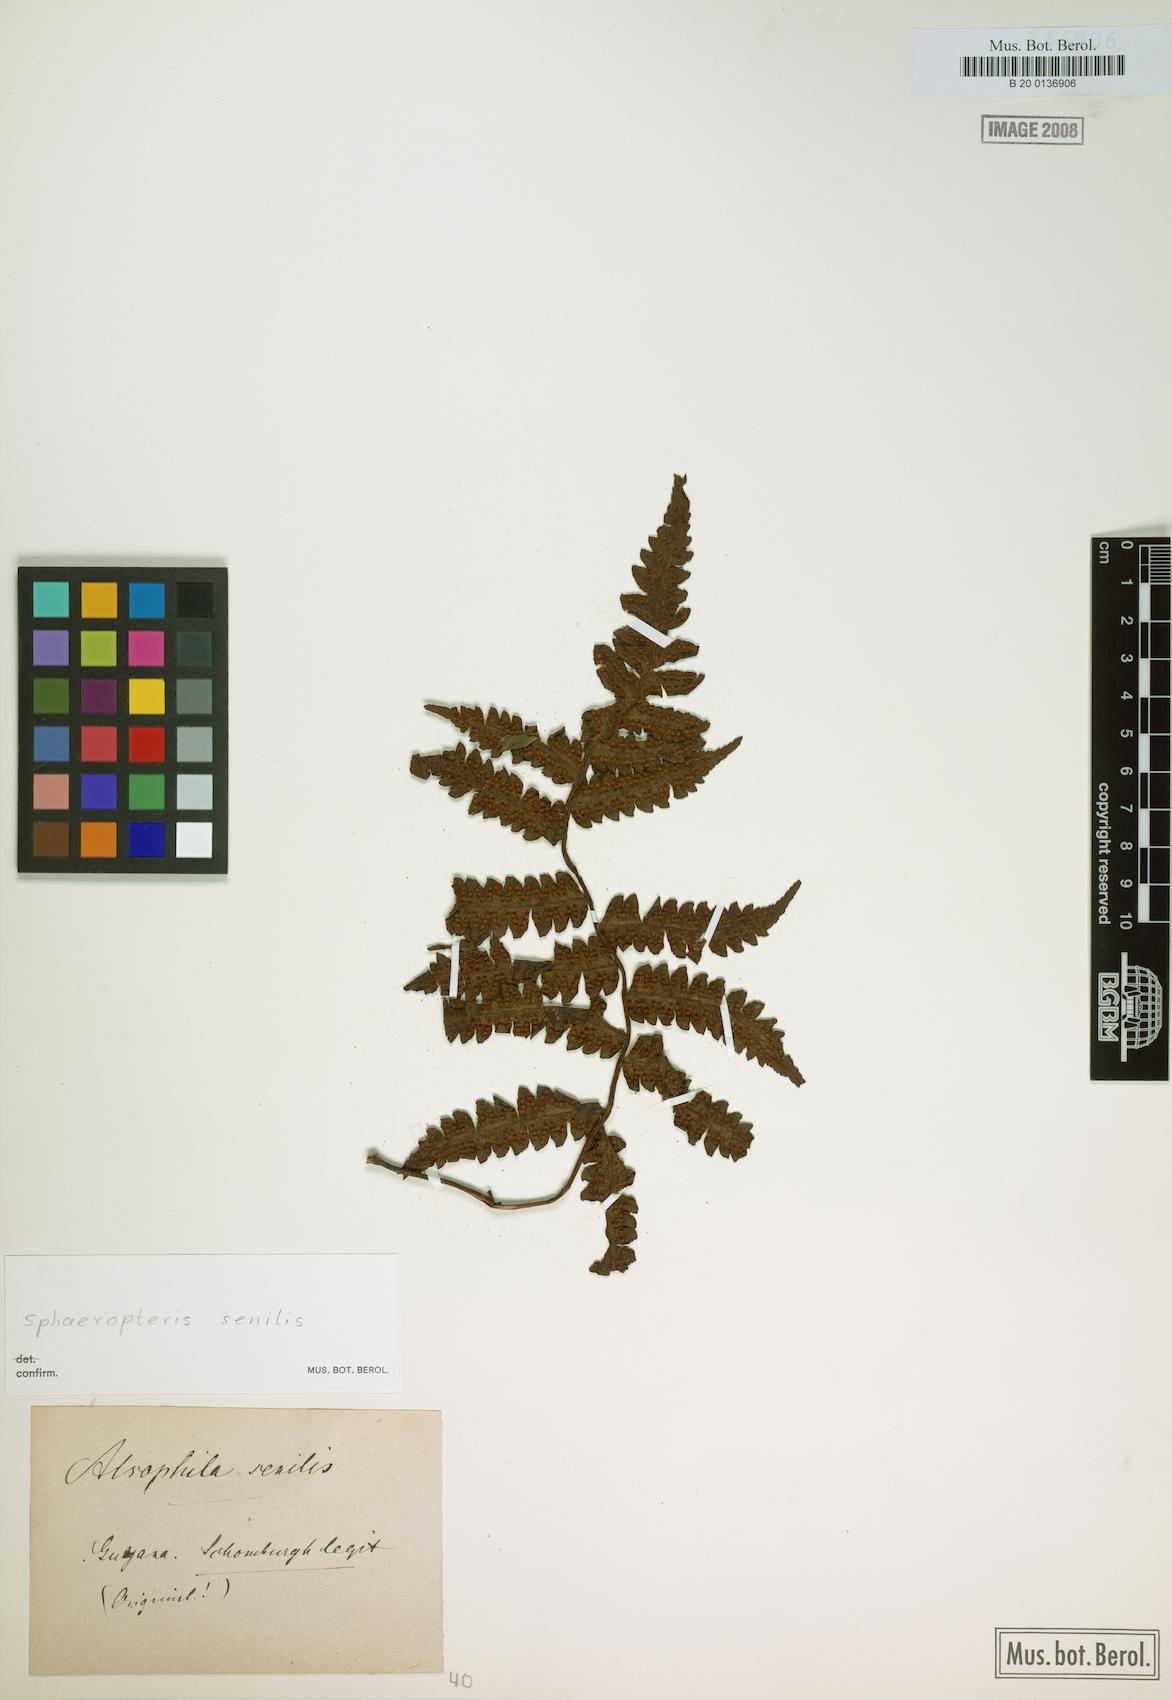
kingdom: Plantae
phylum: Tracheophyta
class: Polypodiopsida
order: Cyatheales
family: Cyatheaceae
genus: Sphaeropteris
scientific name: Sphaeropteris senilis
